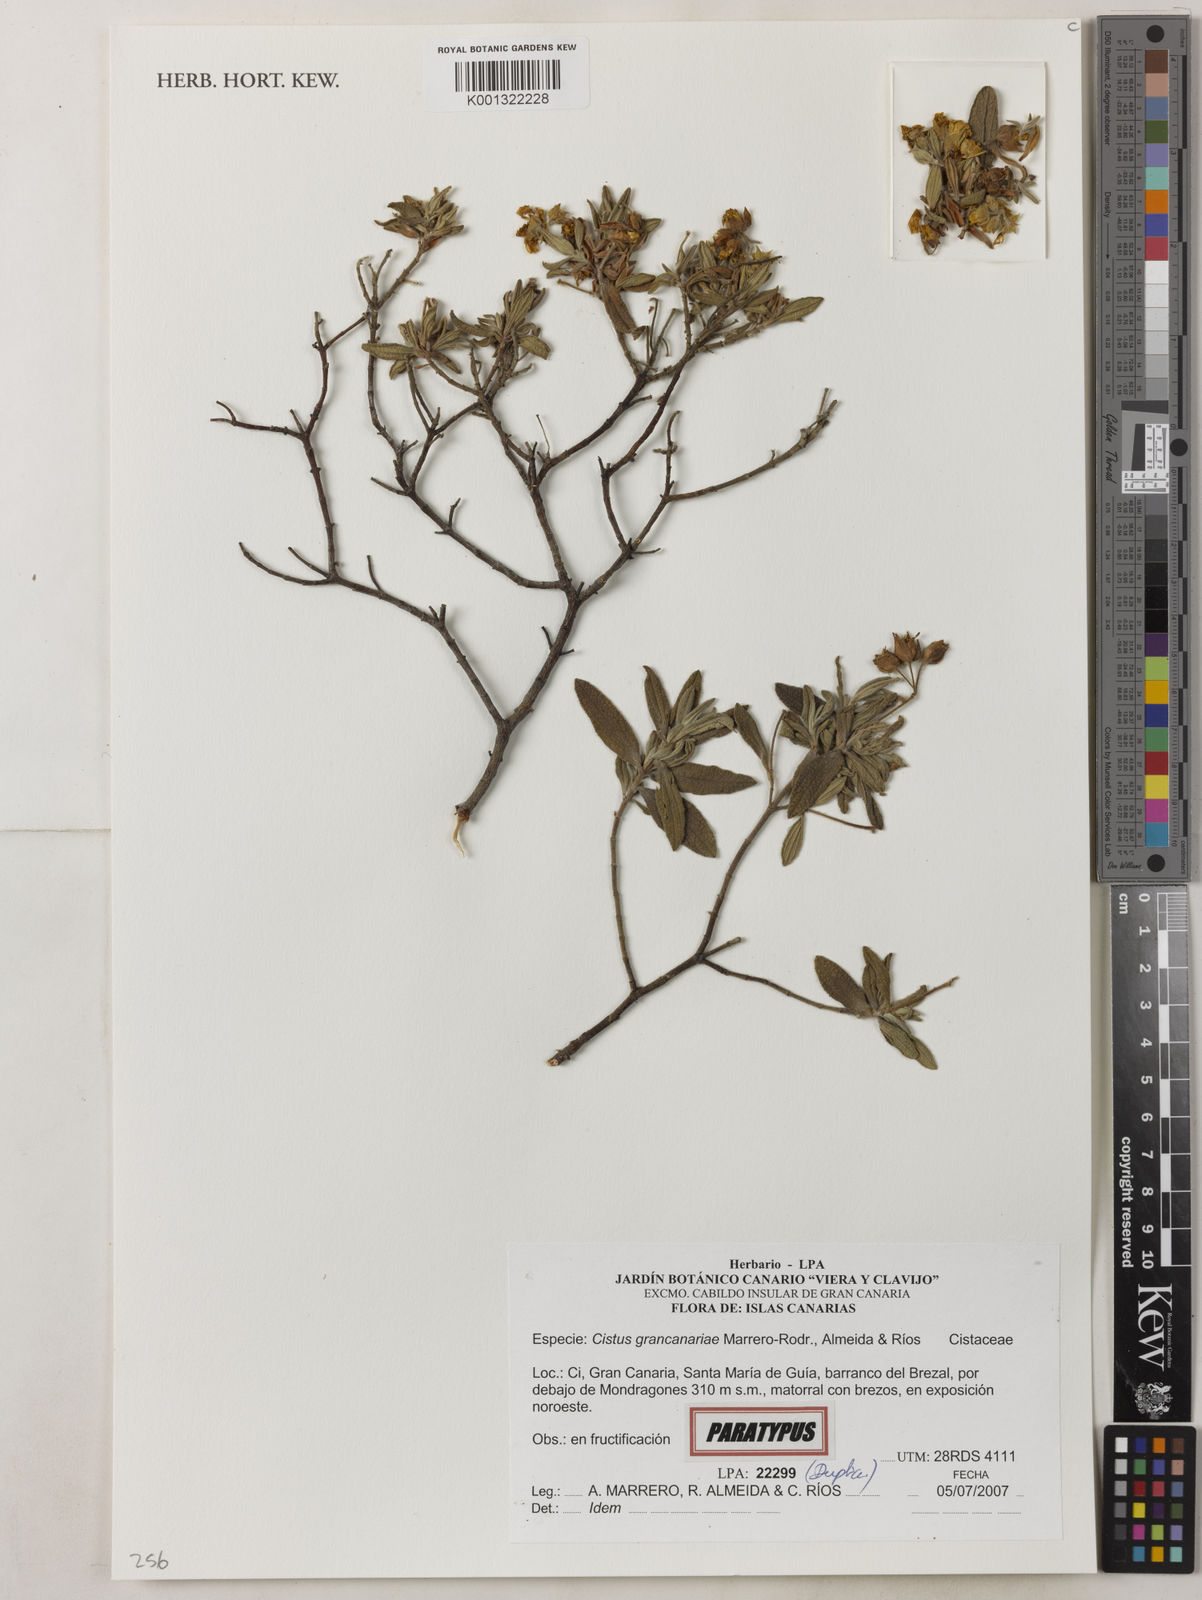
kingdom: Plantae
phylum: Tracheophyta
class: Magnoliopsida
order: Malvales
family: Cistaceae
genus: Cistus
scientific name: Cistus
